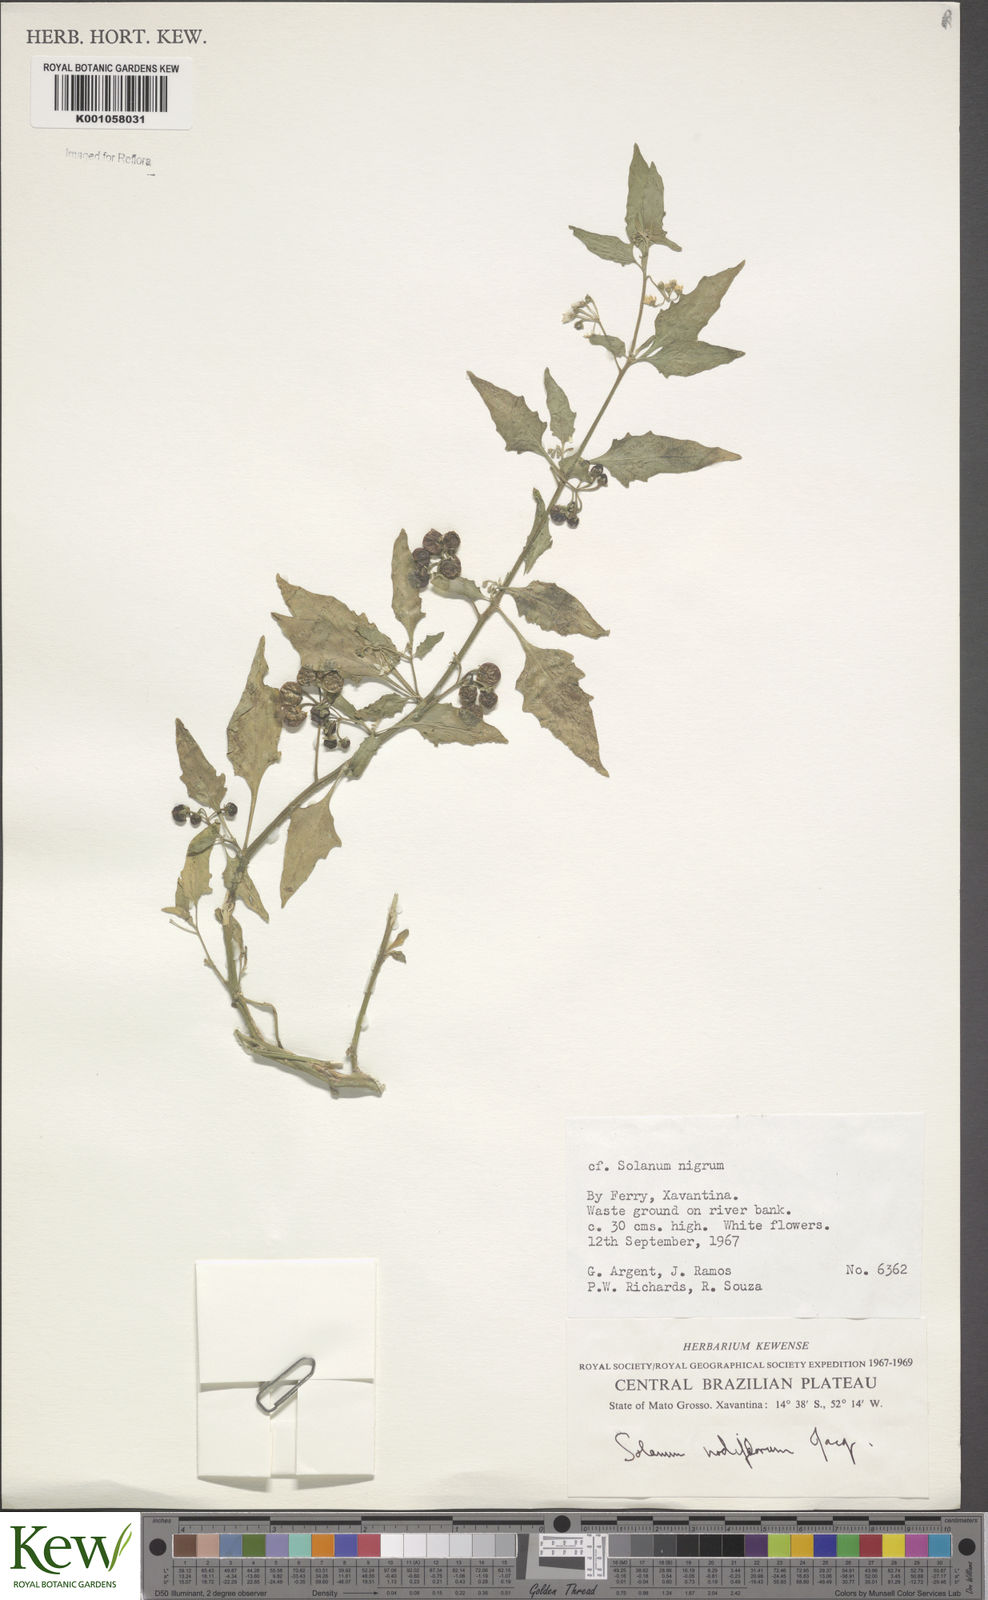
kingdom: Plantae
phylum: Tracheophyta
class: Magnoliopsida
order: Solanales
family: Solanaceae
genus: Solanum
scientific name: Solanum americanum
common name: American black nightshade
